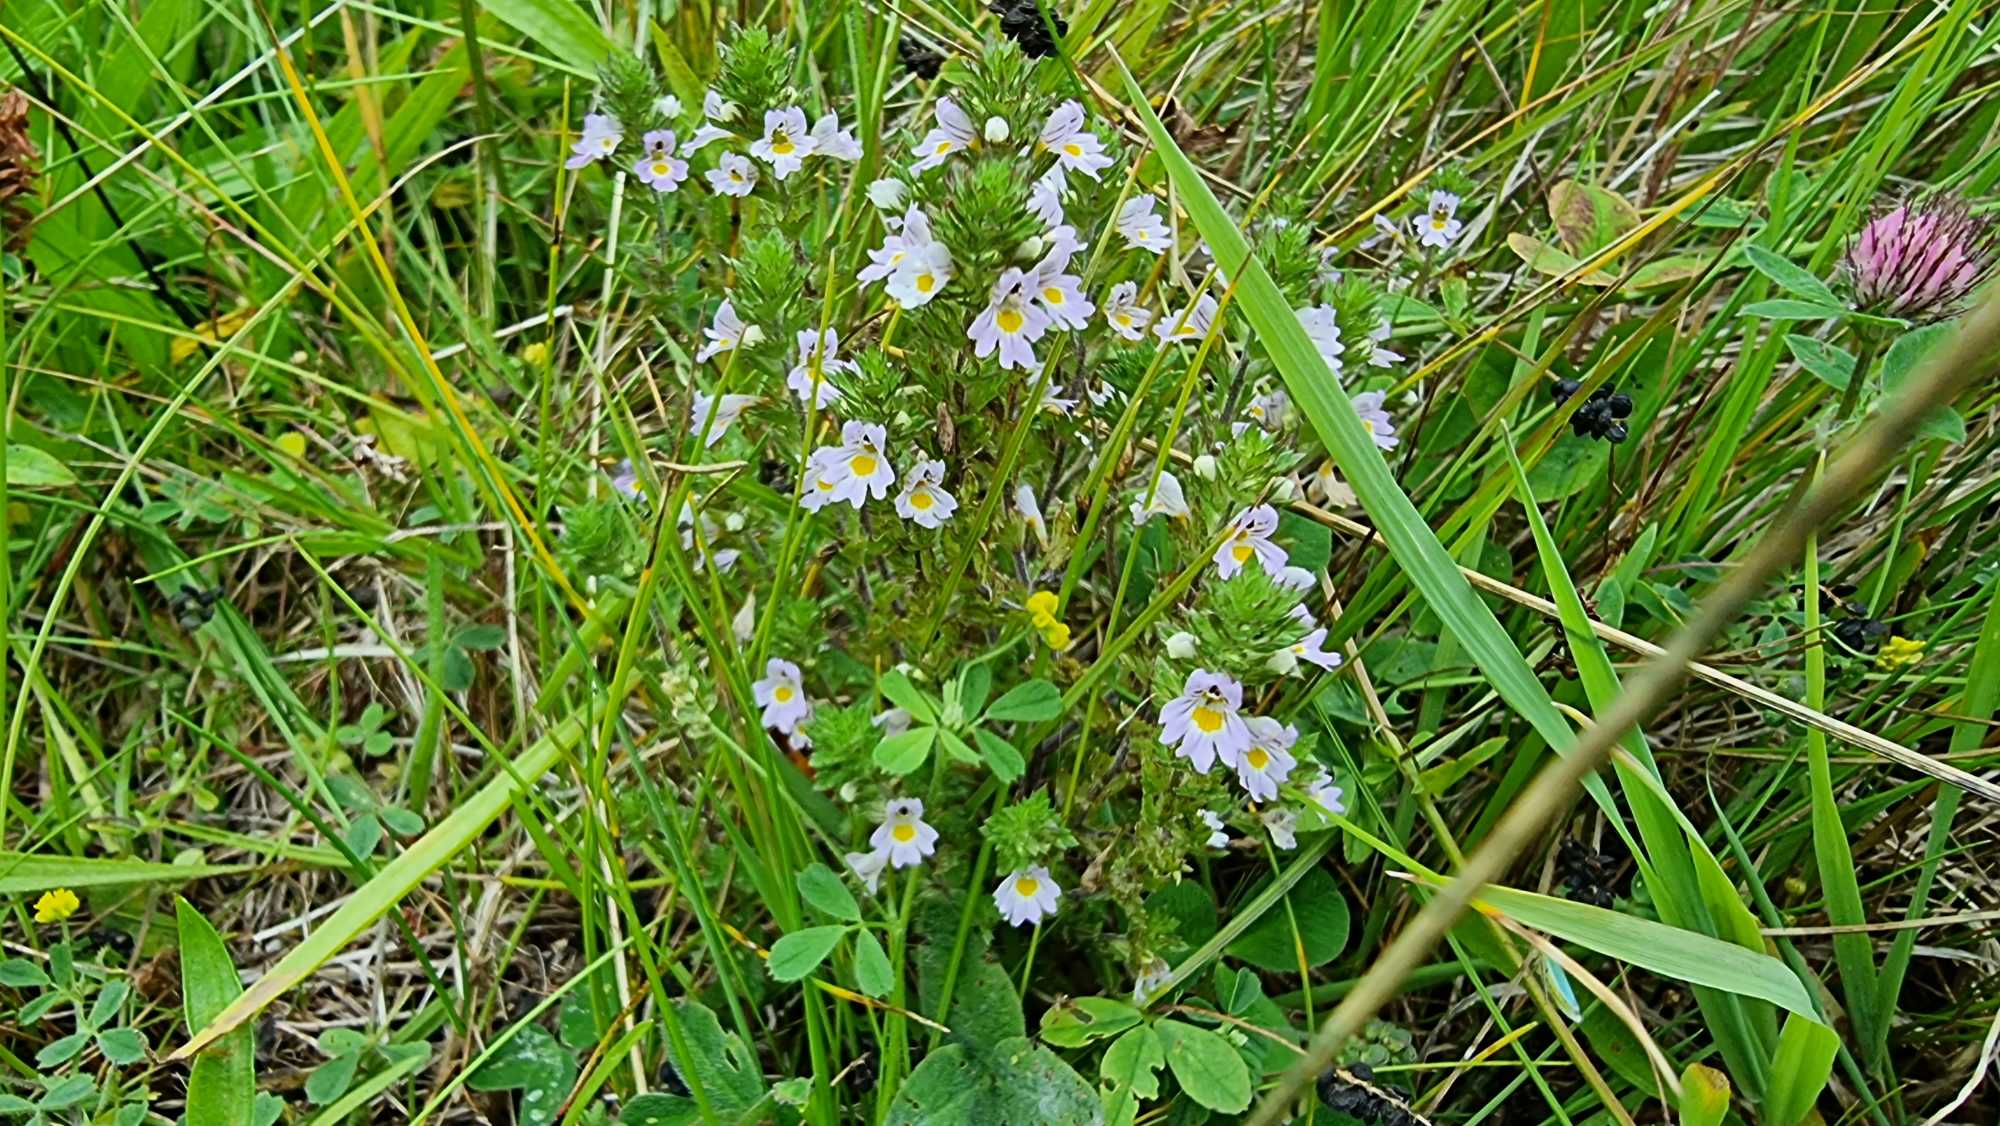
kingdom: Plantae
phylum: Tracheophyta
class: Magnoliopsida
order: Lamiales
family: Orobanchaceae
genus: Euphrasia
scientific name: Euphrasia stricta
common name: Spids øjentrøst
